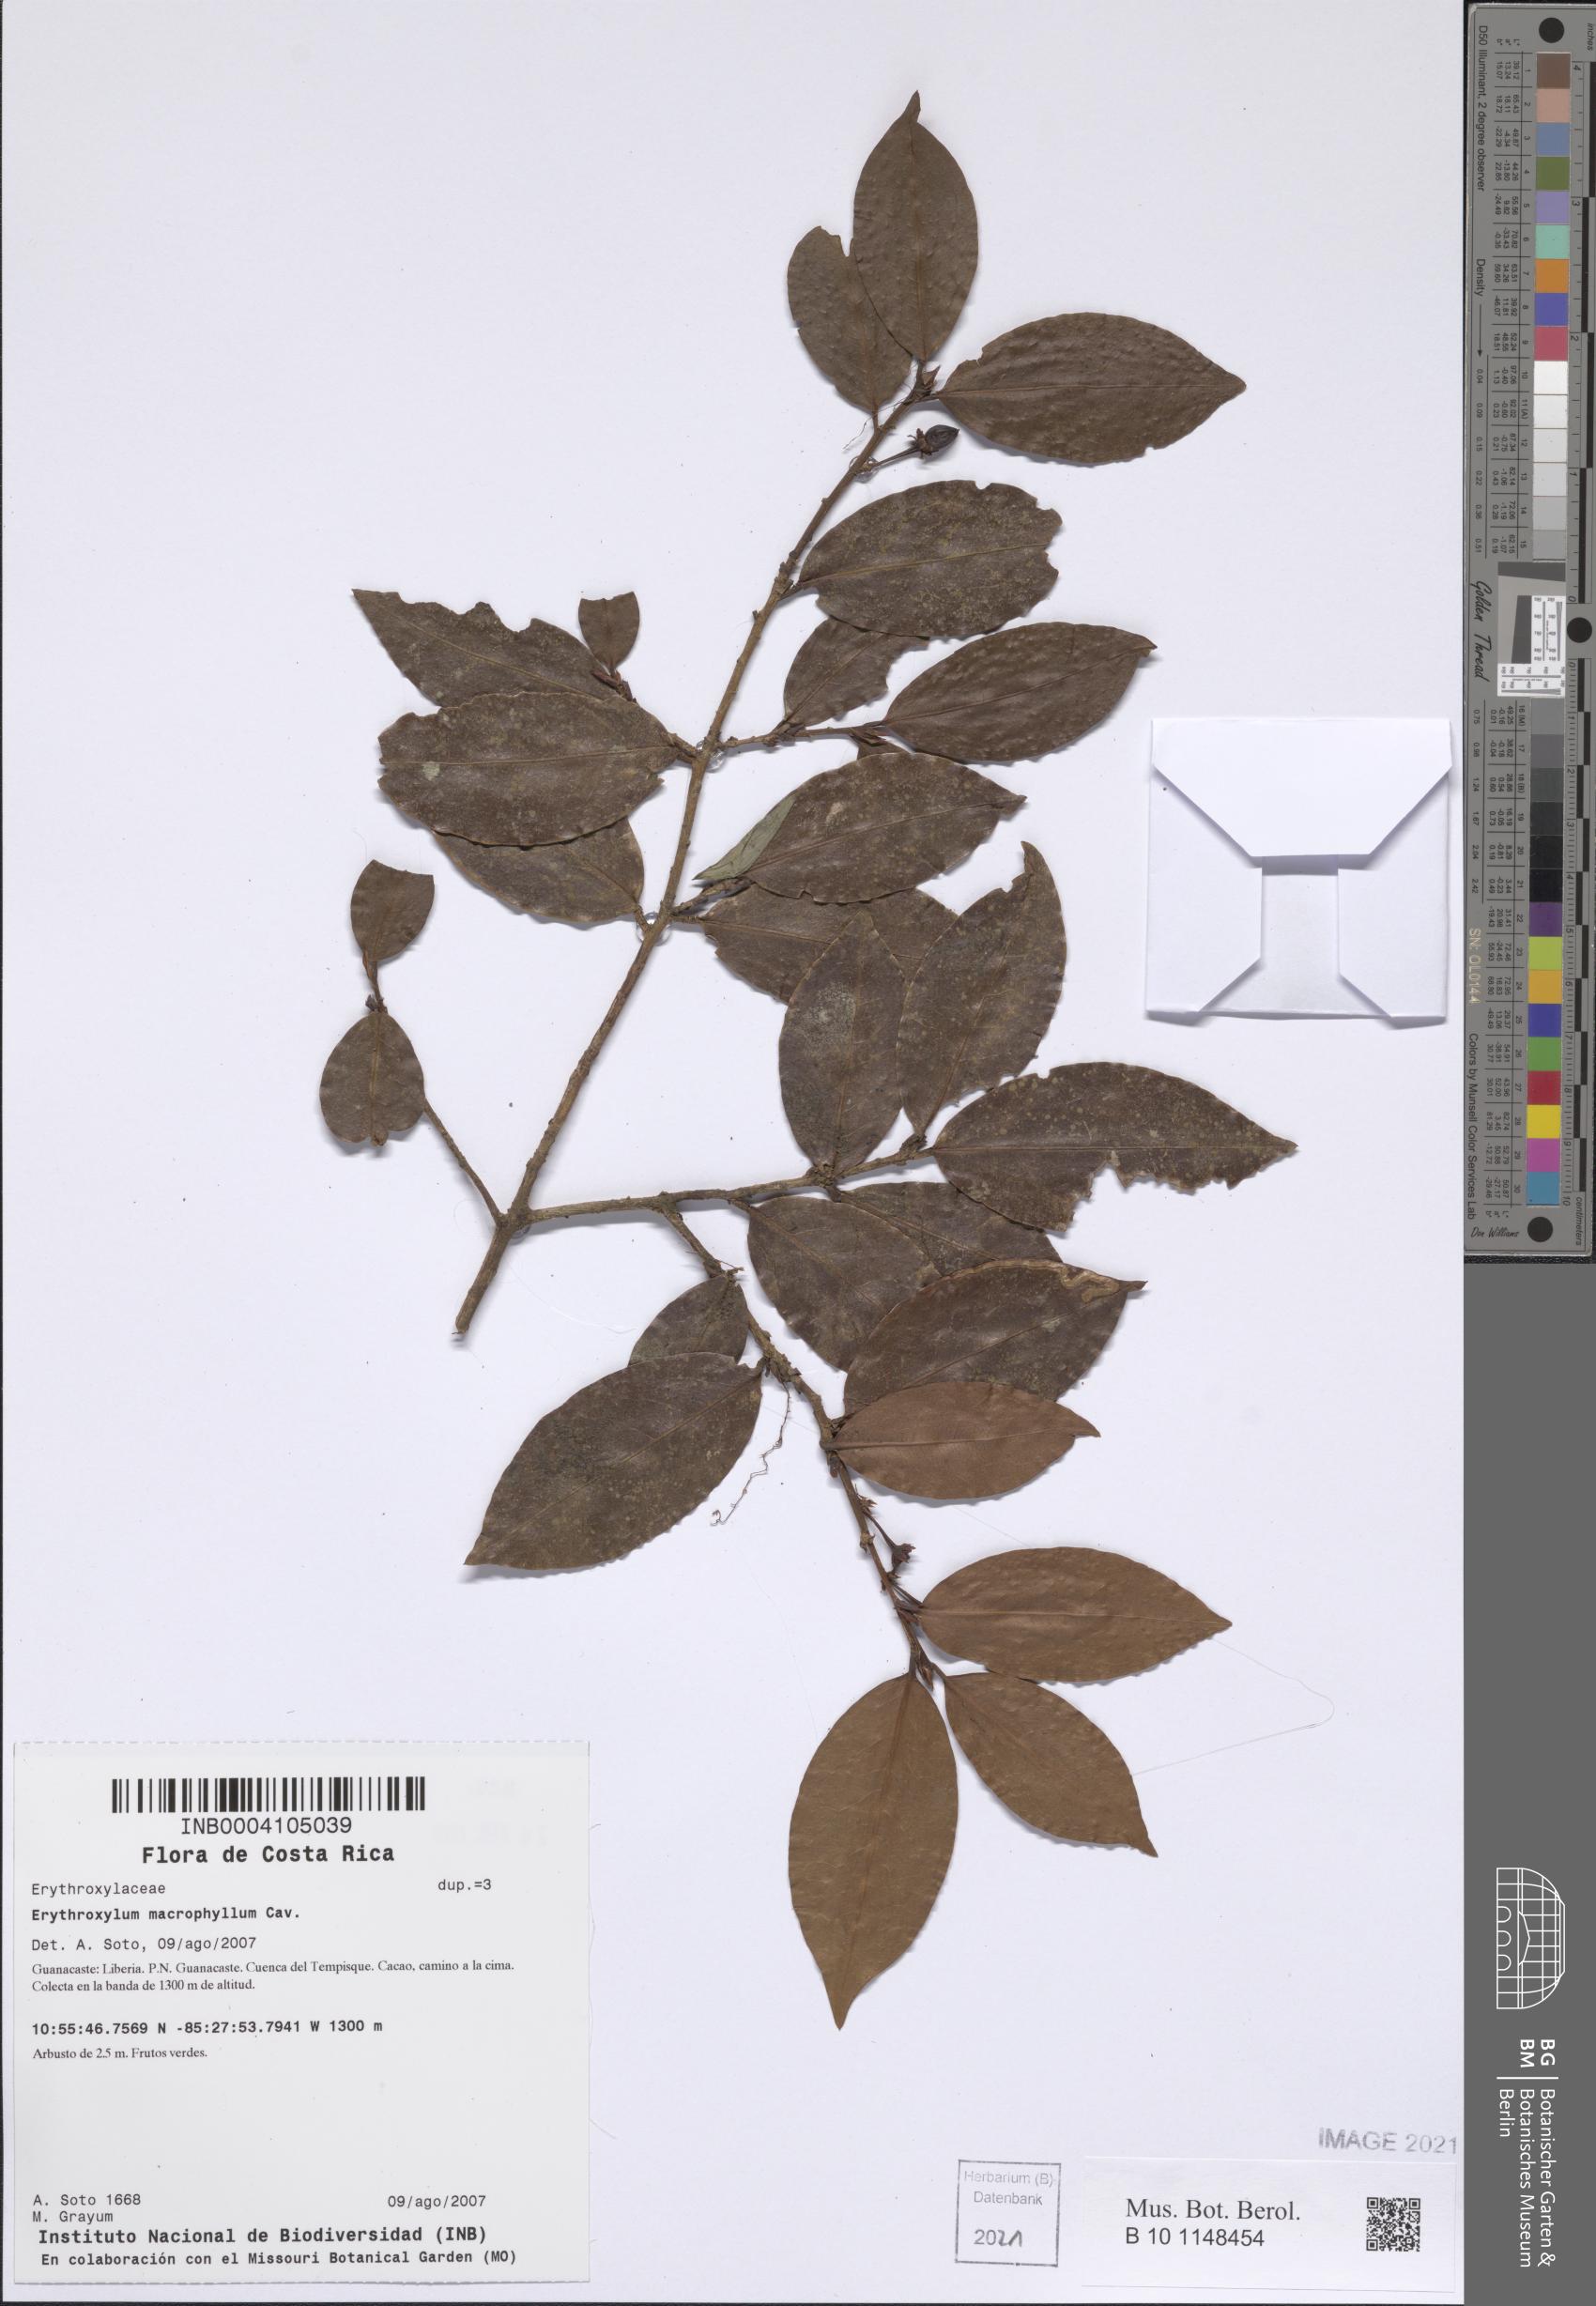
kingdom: Plantae
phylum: Tracheophyta
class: Magnoliopsida
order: Malpighiales
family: Erythroxylaceae
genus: Erythroxylum
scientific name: Erythroxylum macrophyllum
